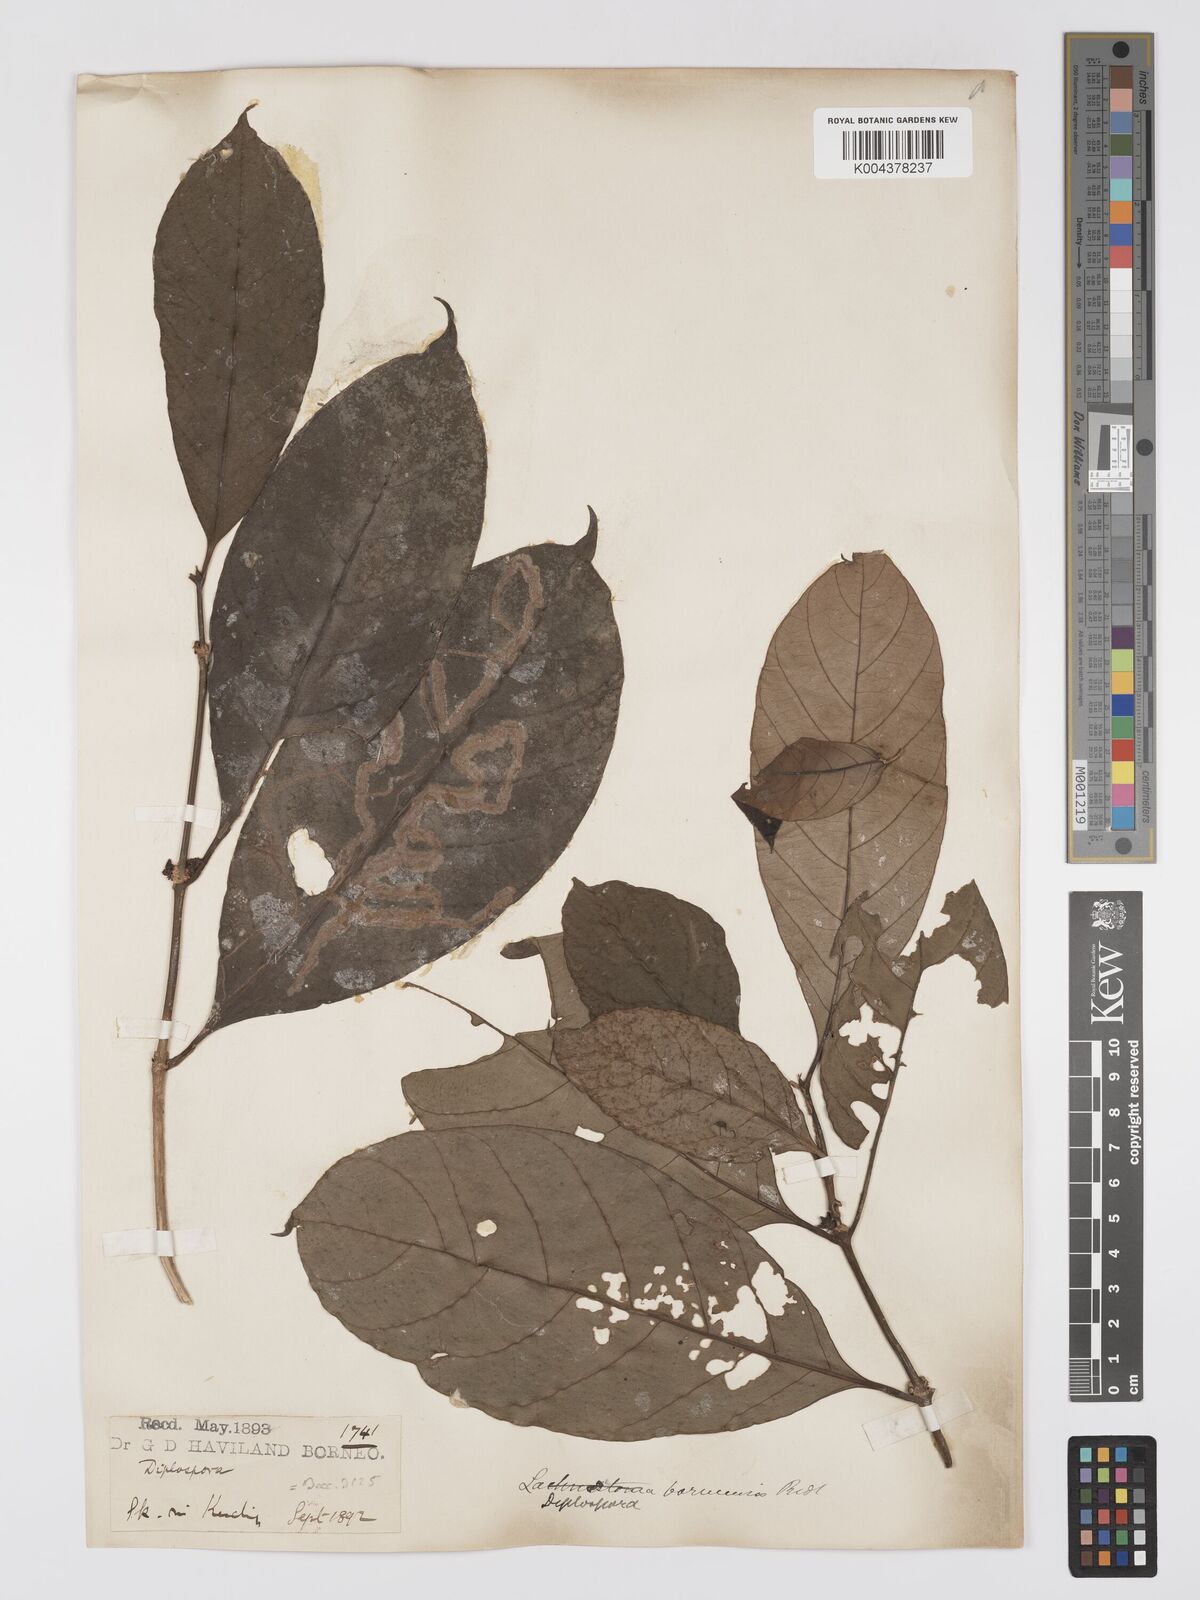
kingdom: Plantae
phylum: Tracheophyta
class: Magnoliopsida
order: Gentianales
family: Rubiaceae
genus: Diplospora
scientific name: Diplospora
